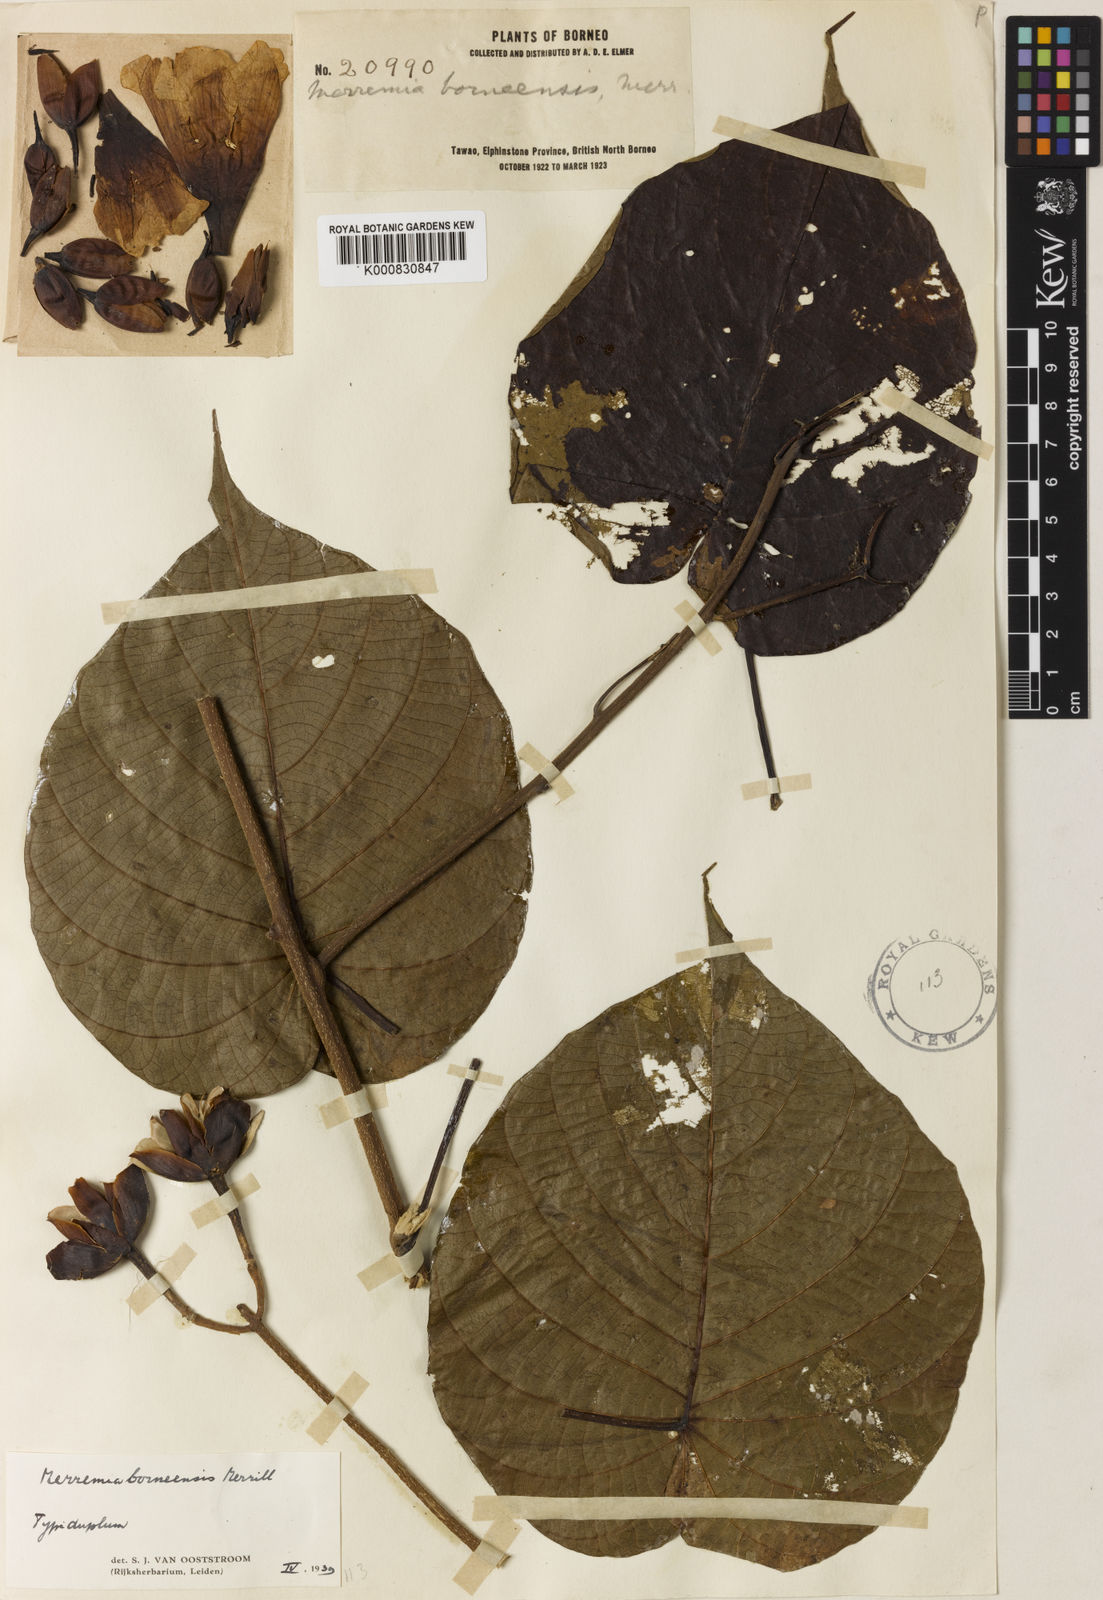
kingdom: Plantae
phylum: Tracheophyta
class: Magnoliopsida
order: Solanales
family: Convolvulaceae
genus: Decalobanthus
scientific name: Decalobanthus borneensis
